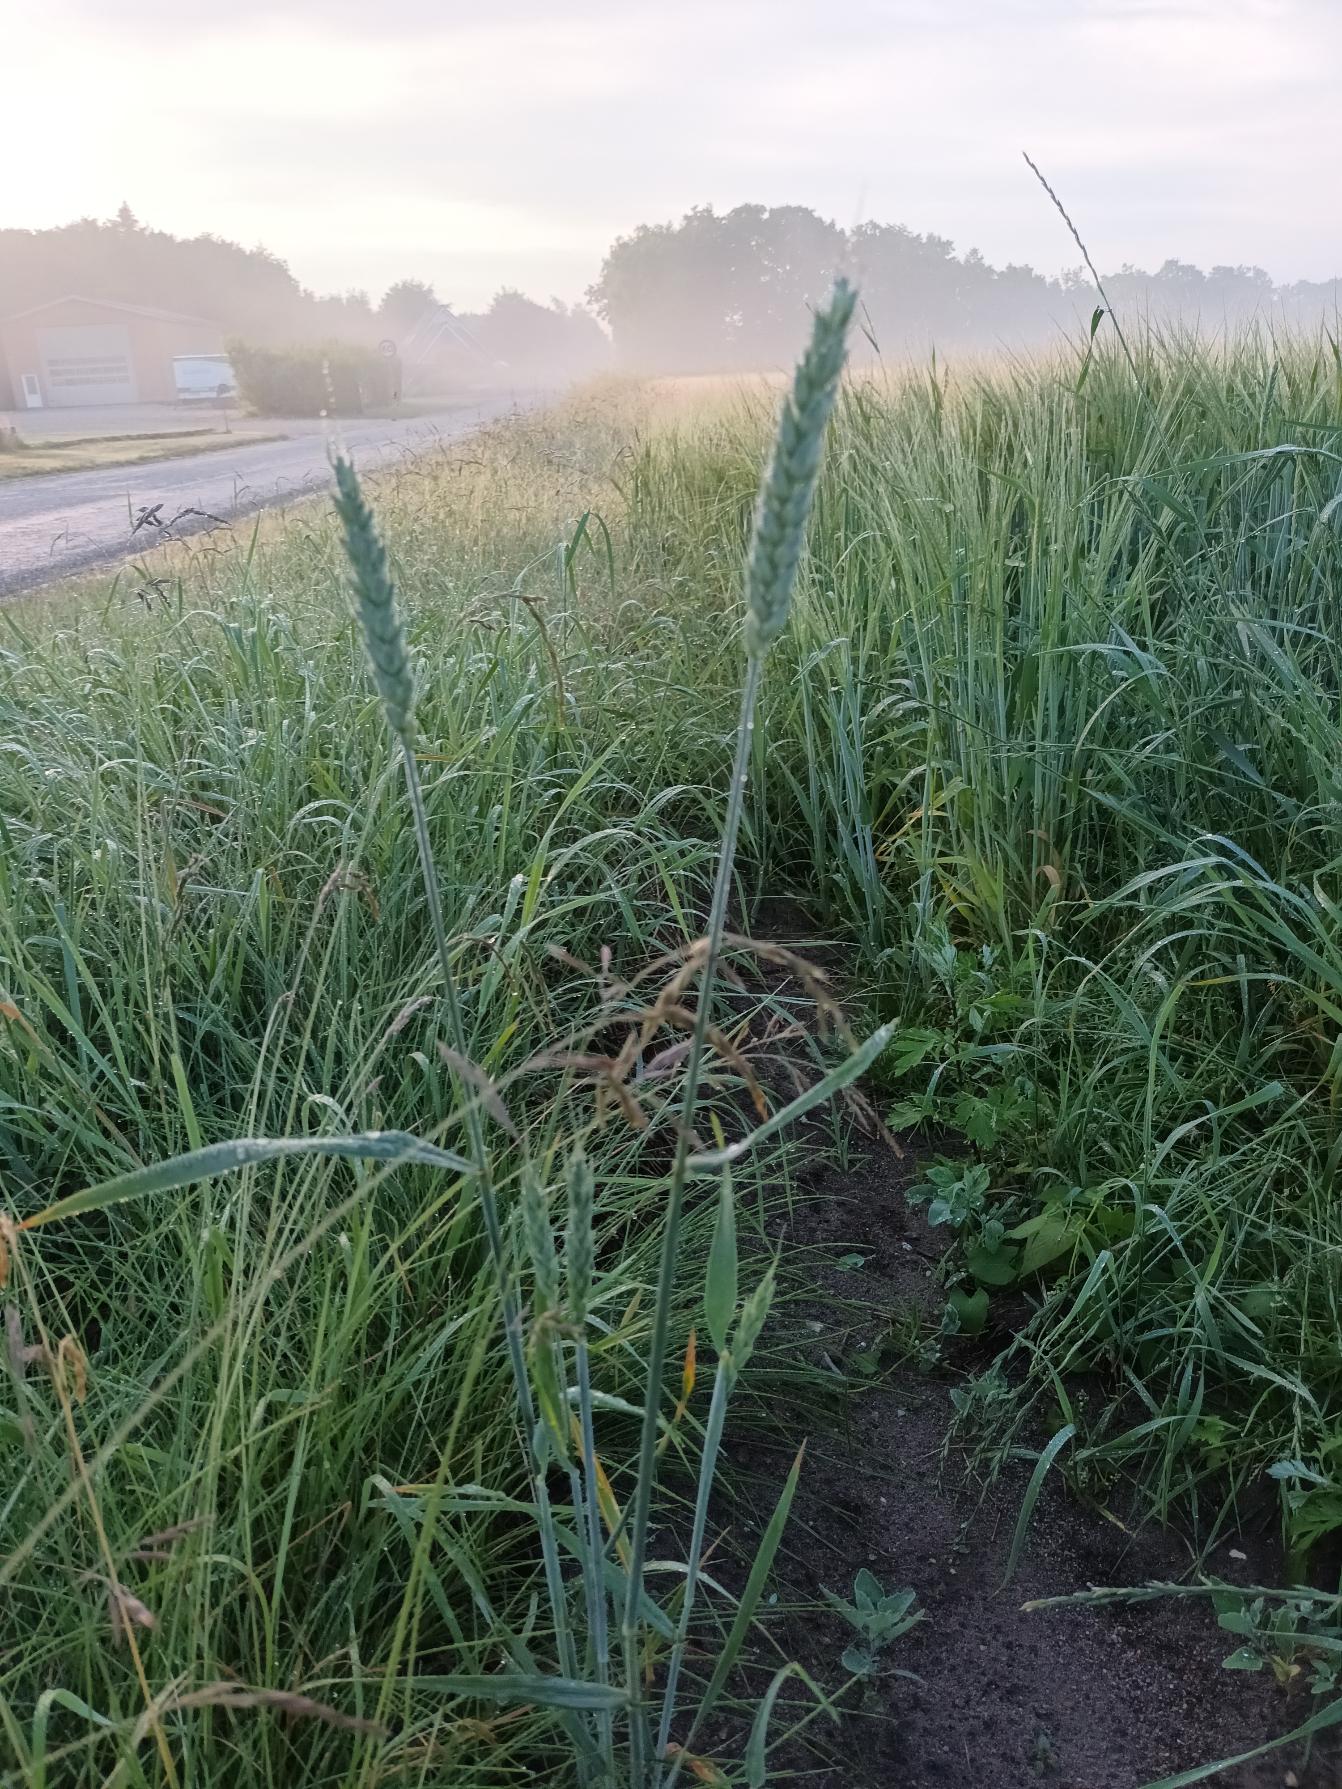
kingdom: Plantae
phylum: Tracheophyta
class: Liliopsida
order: Poales
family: Poaceae
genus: Triticum
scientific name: Triticum aestivum
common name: Almindelig hvede
